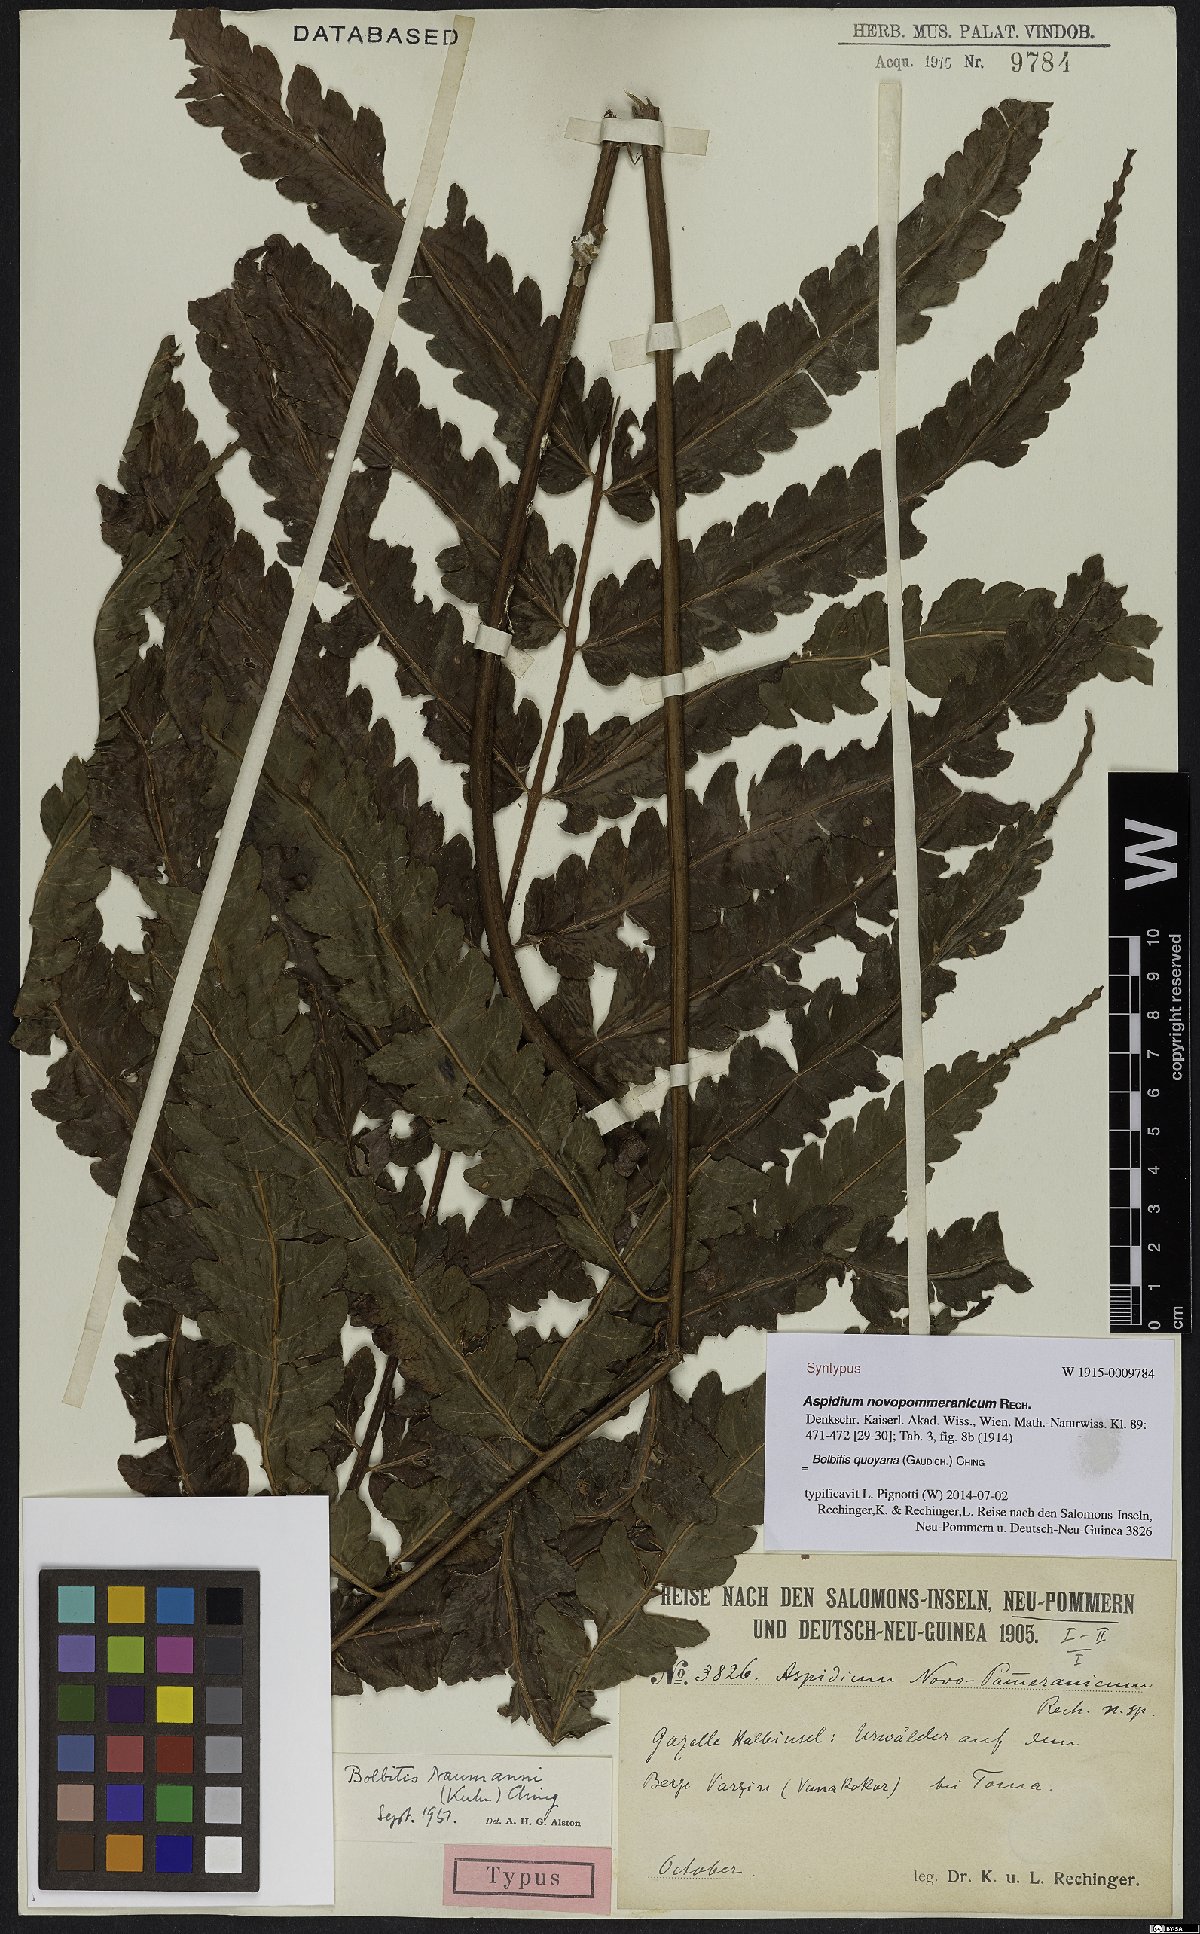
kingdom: Plantae
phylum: Tracheophyta
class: Polypodiopsida
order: Polypodiales
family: Dryopteridaceae
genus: Bolbitis
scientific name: Bolbitis quoyana
